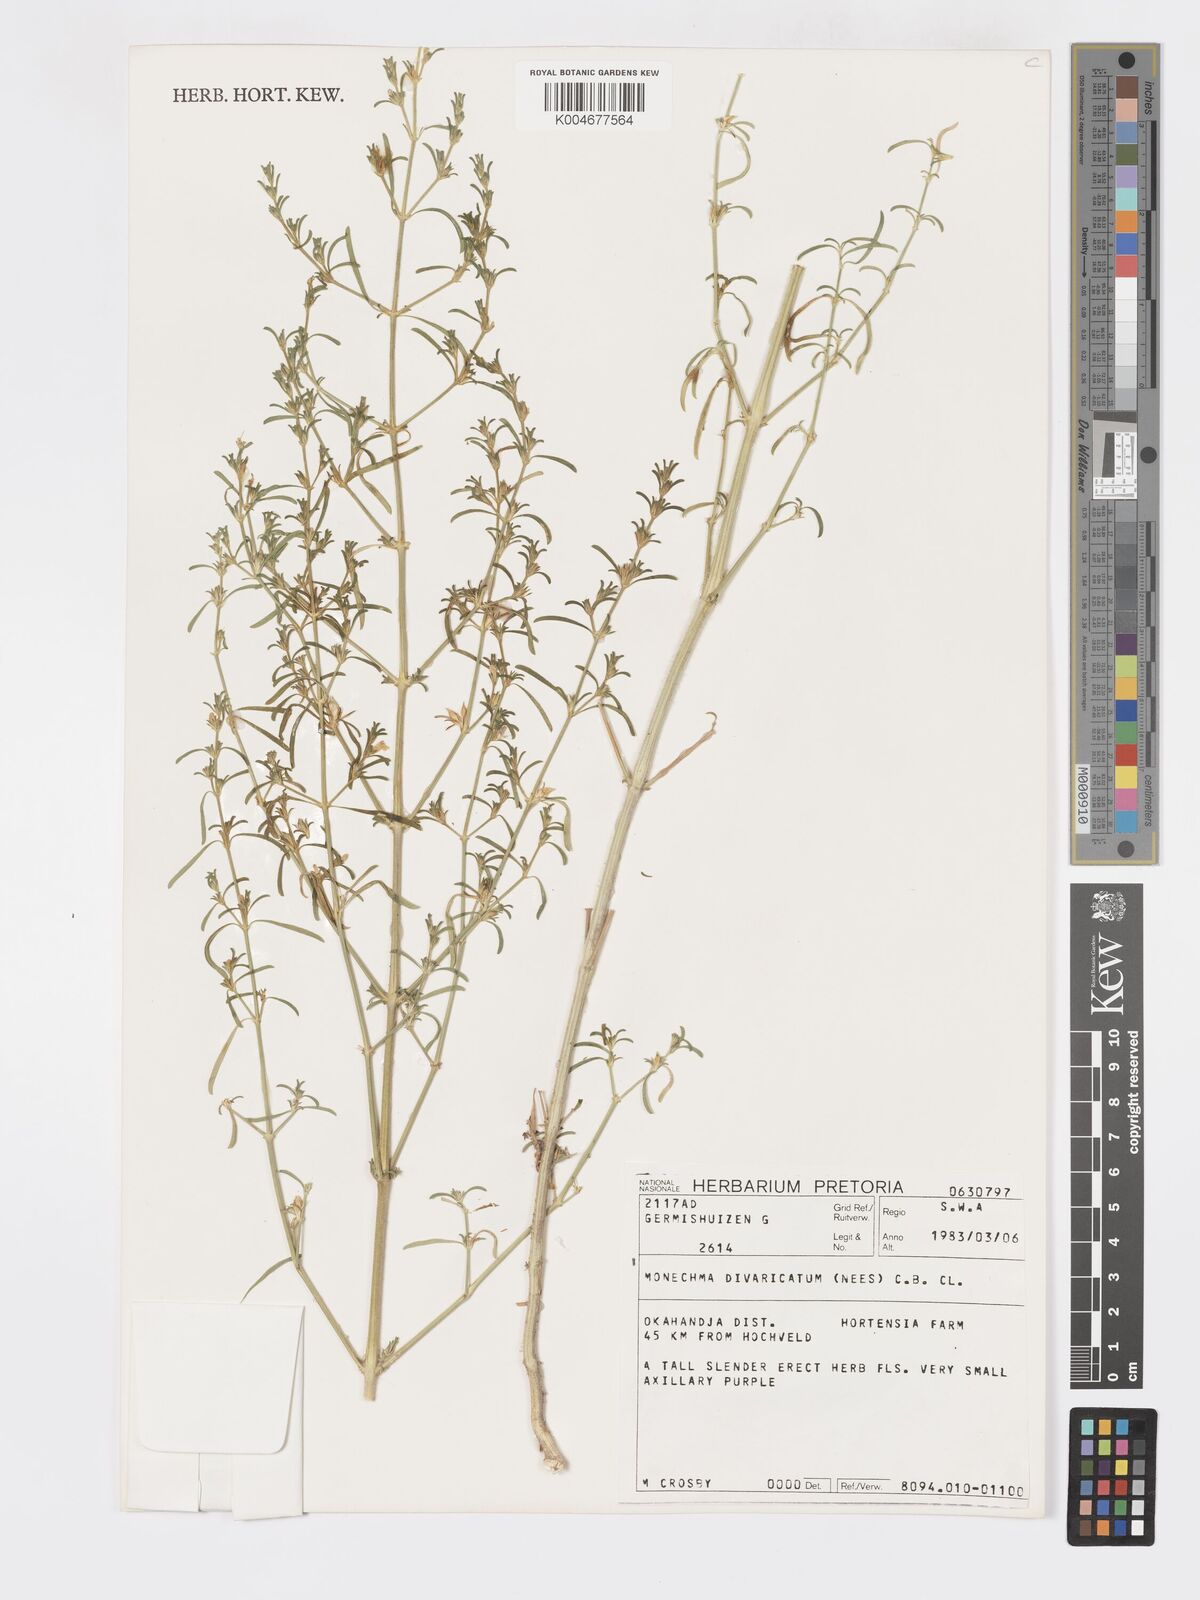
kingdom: Plantae
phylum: Tracheophyta
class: Magnoliopsida
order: Lamiales
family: Acanthaceae
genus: Pogonospermum
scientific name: Pogonospermum
